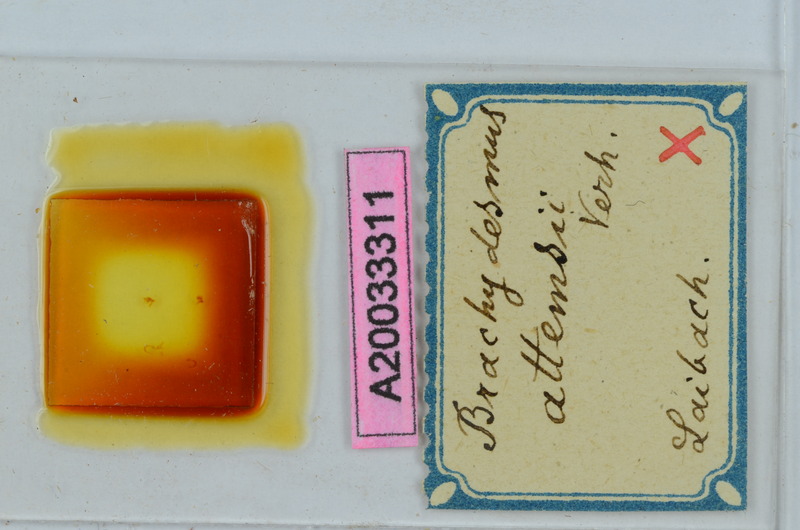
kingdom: Animalia
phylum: Arthropoda
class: Diplopoda
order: Polydesmida
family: Polydesmidae
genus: Brachydesmus
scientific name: Brachydesmus attemsii
